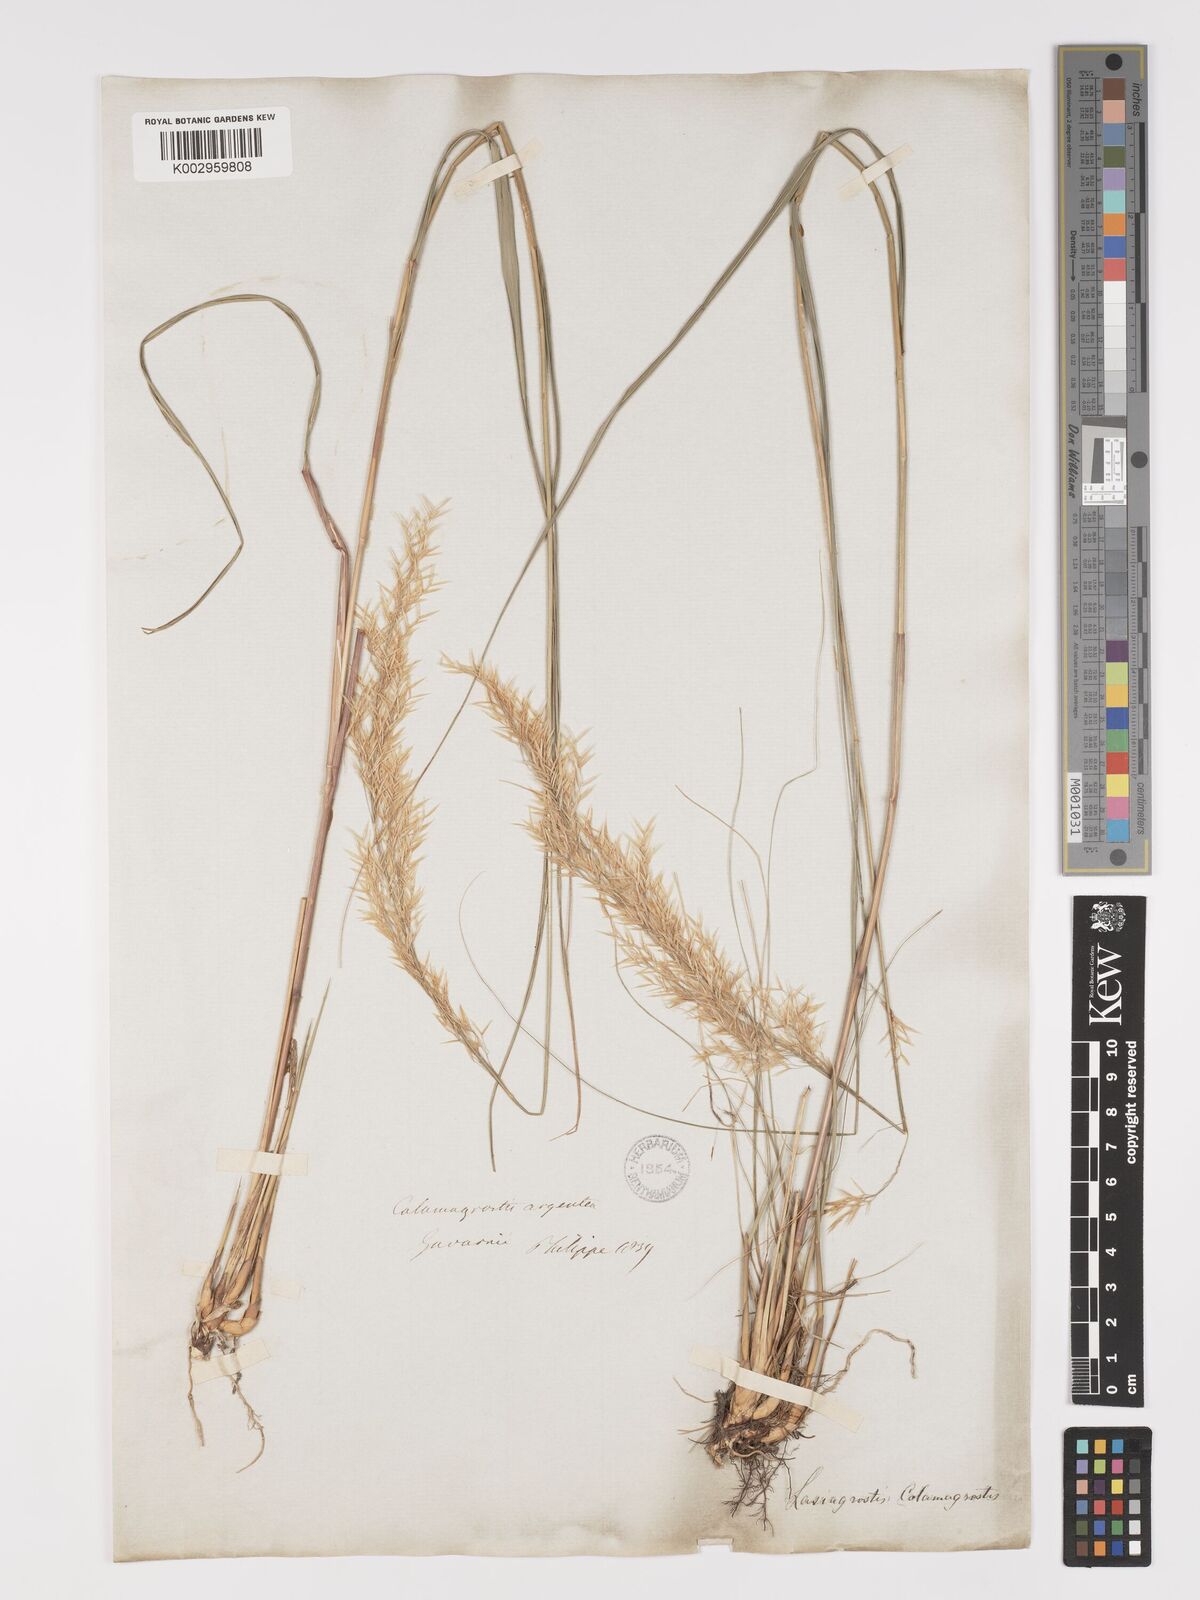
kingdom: Plantae
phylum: Tracheophyta
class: Liliopsida
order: Poales
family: Poaceae
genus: Achnatherum
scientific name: Achnatherum calamagrostis
